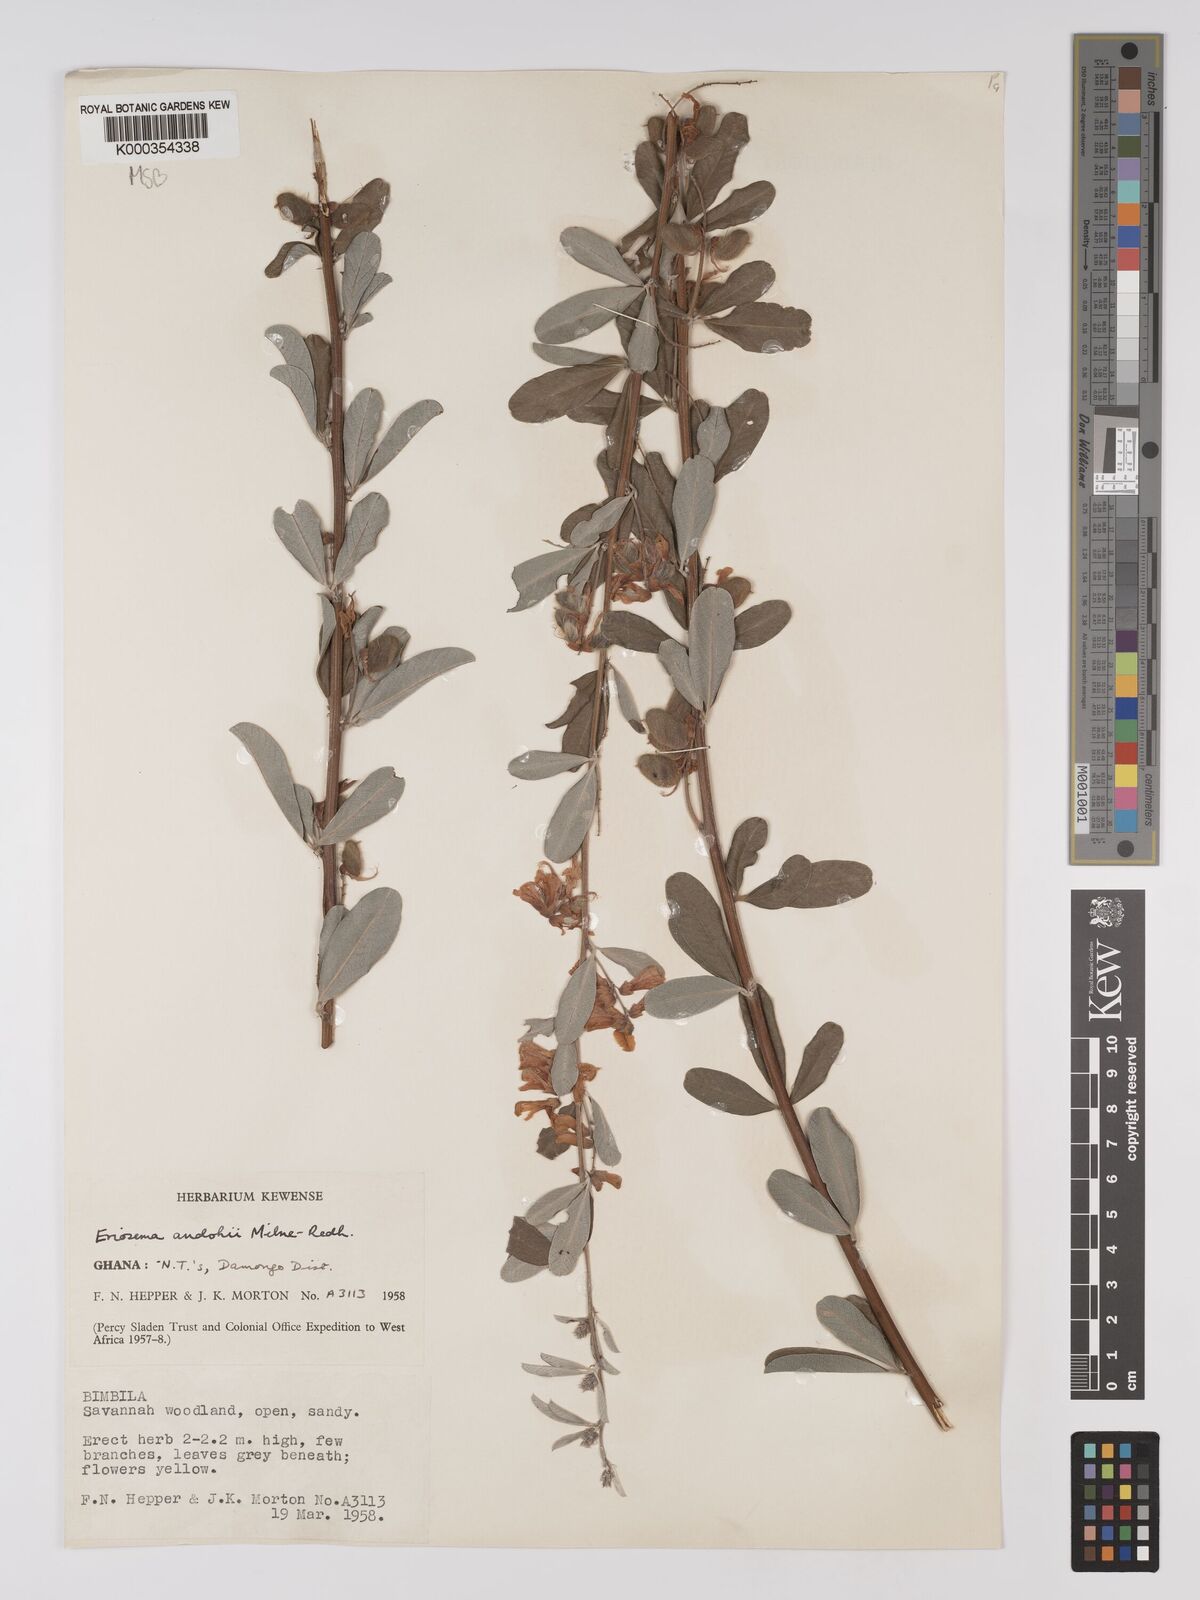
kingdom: Plantae
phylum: Tracheophyta
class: Magnoliopsida
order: Fabales
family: Fabaceae
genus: Eriosema
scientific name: Eriosema andohii
